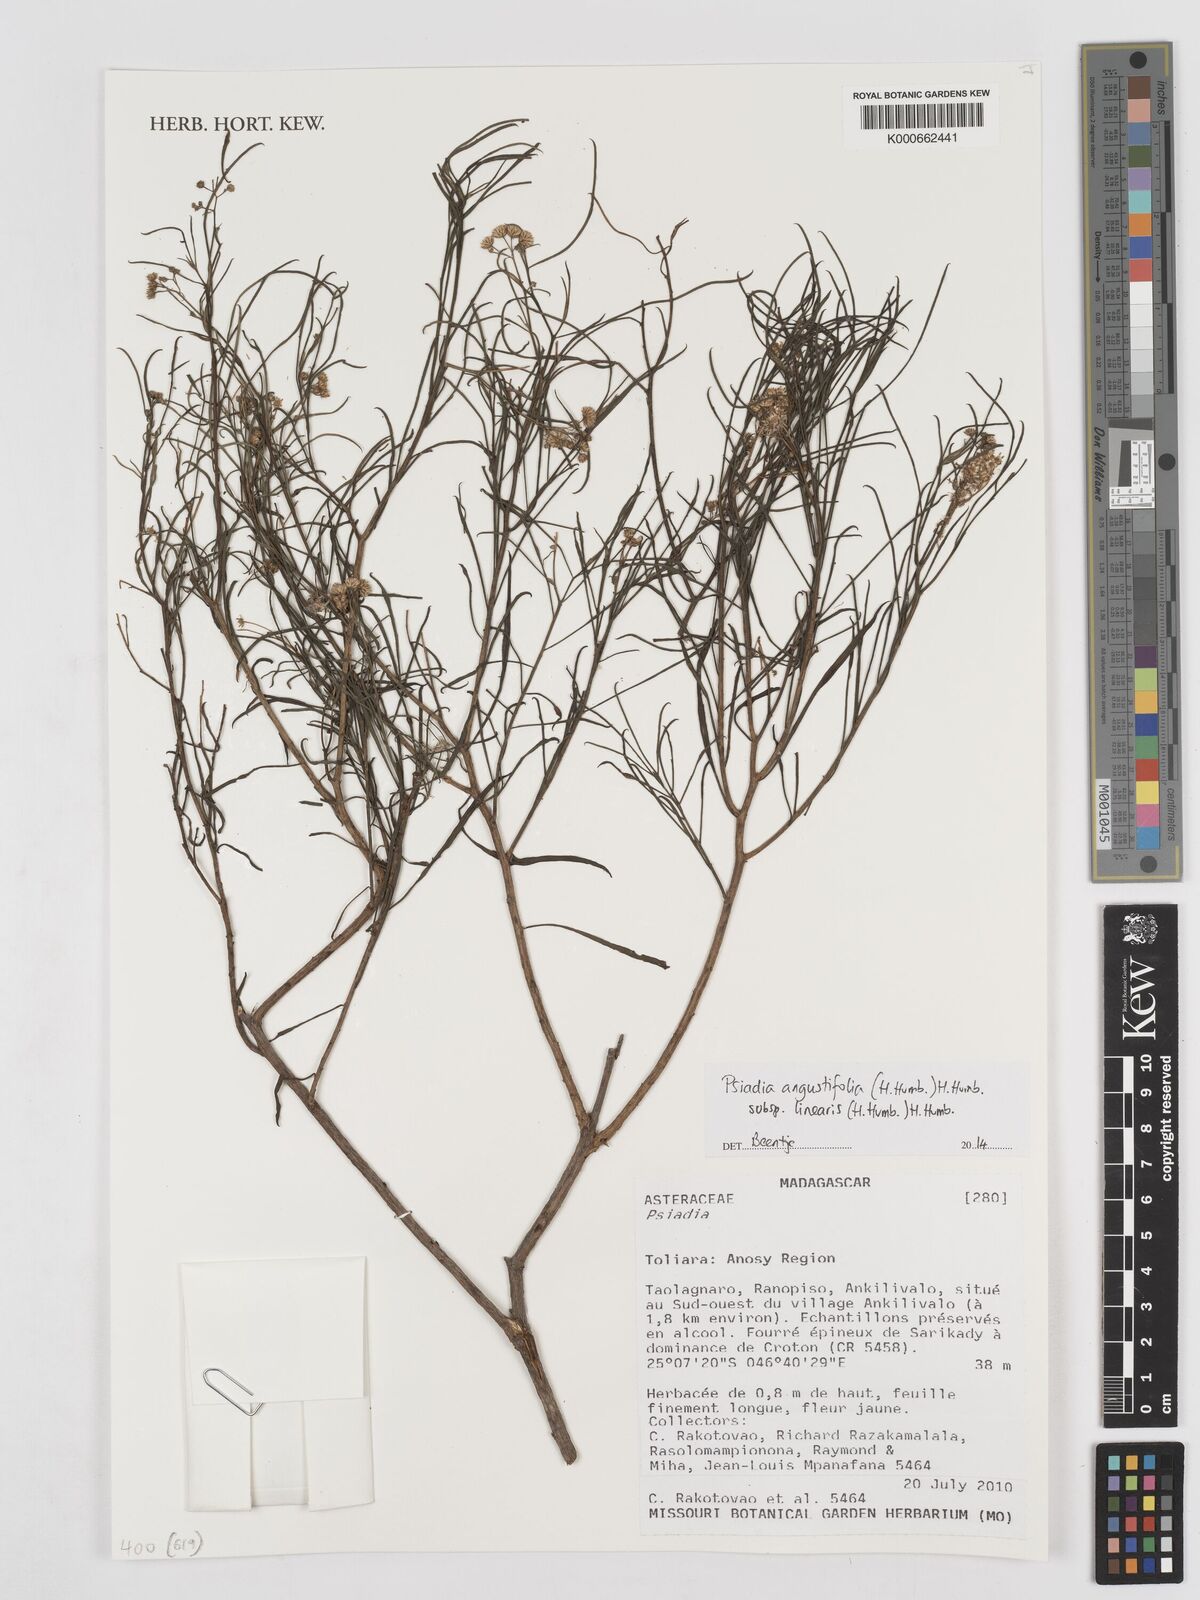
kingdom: Plantae
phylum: Tracheophyta
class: Magnoliopsida
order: Asterales
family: Asteraceae
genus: Psiadia
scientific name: Psiadia angustifolia
